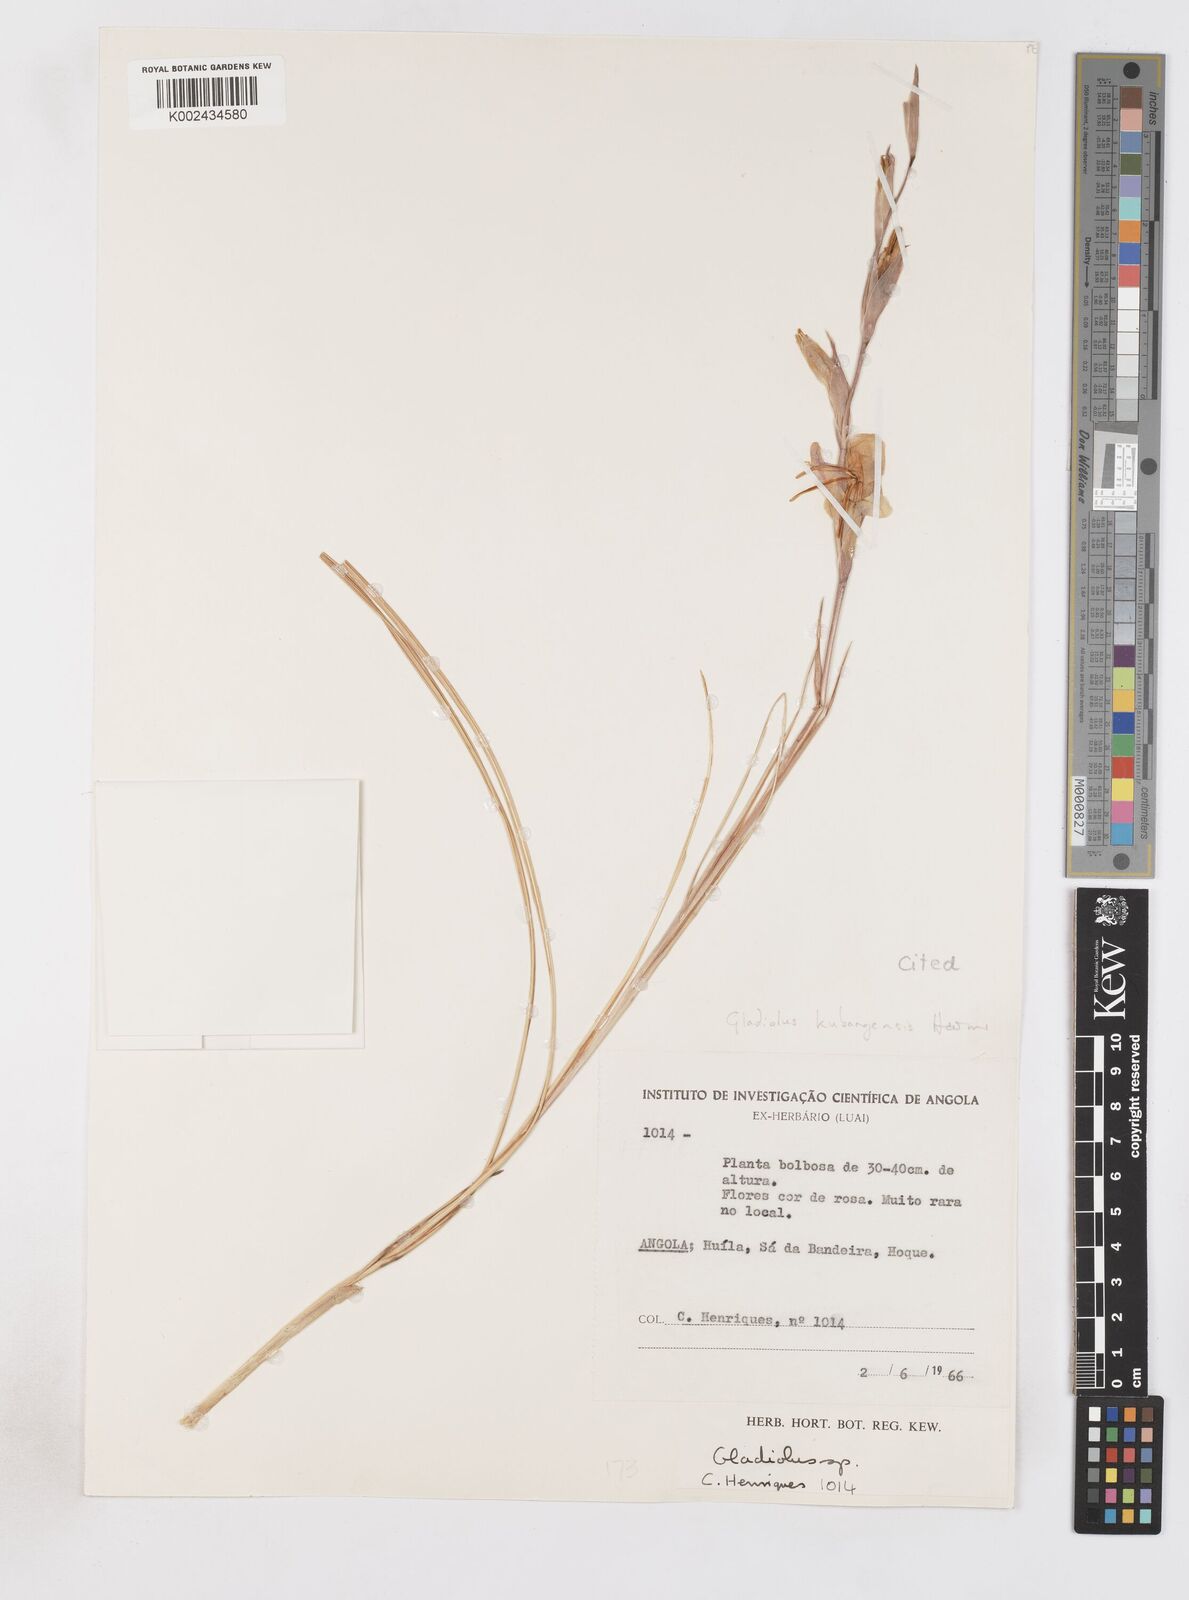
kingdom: Plantae
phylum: Tracheophyta
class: Liliopsida
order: Asparagales
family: Iridaceae
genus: Gladiolus
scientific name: Gladiolus
